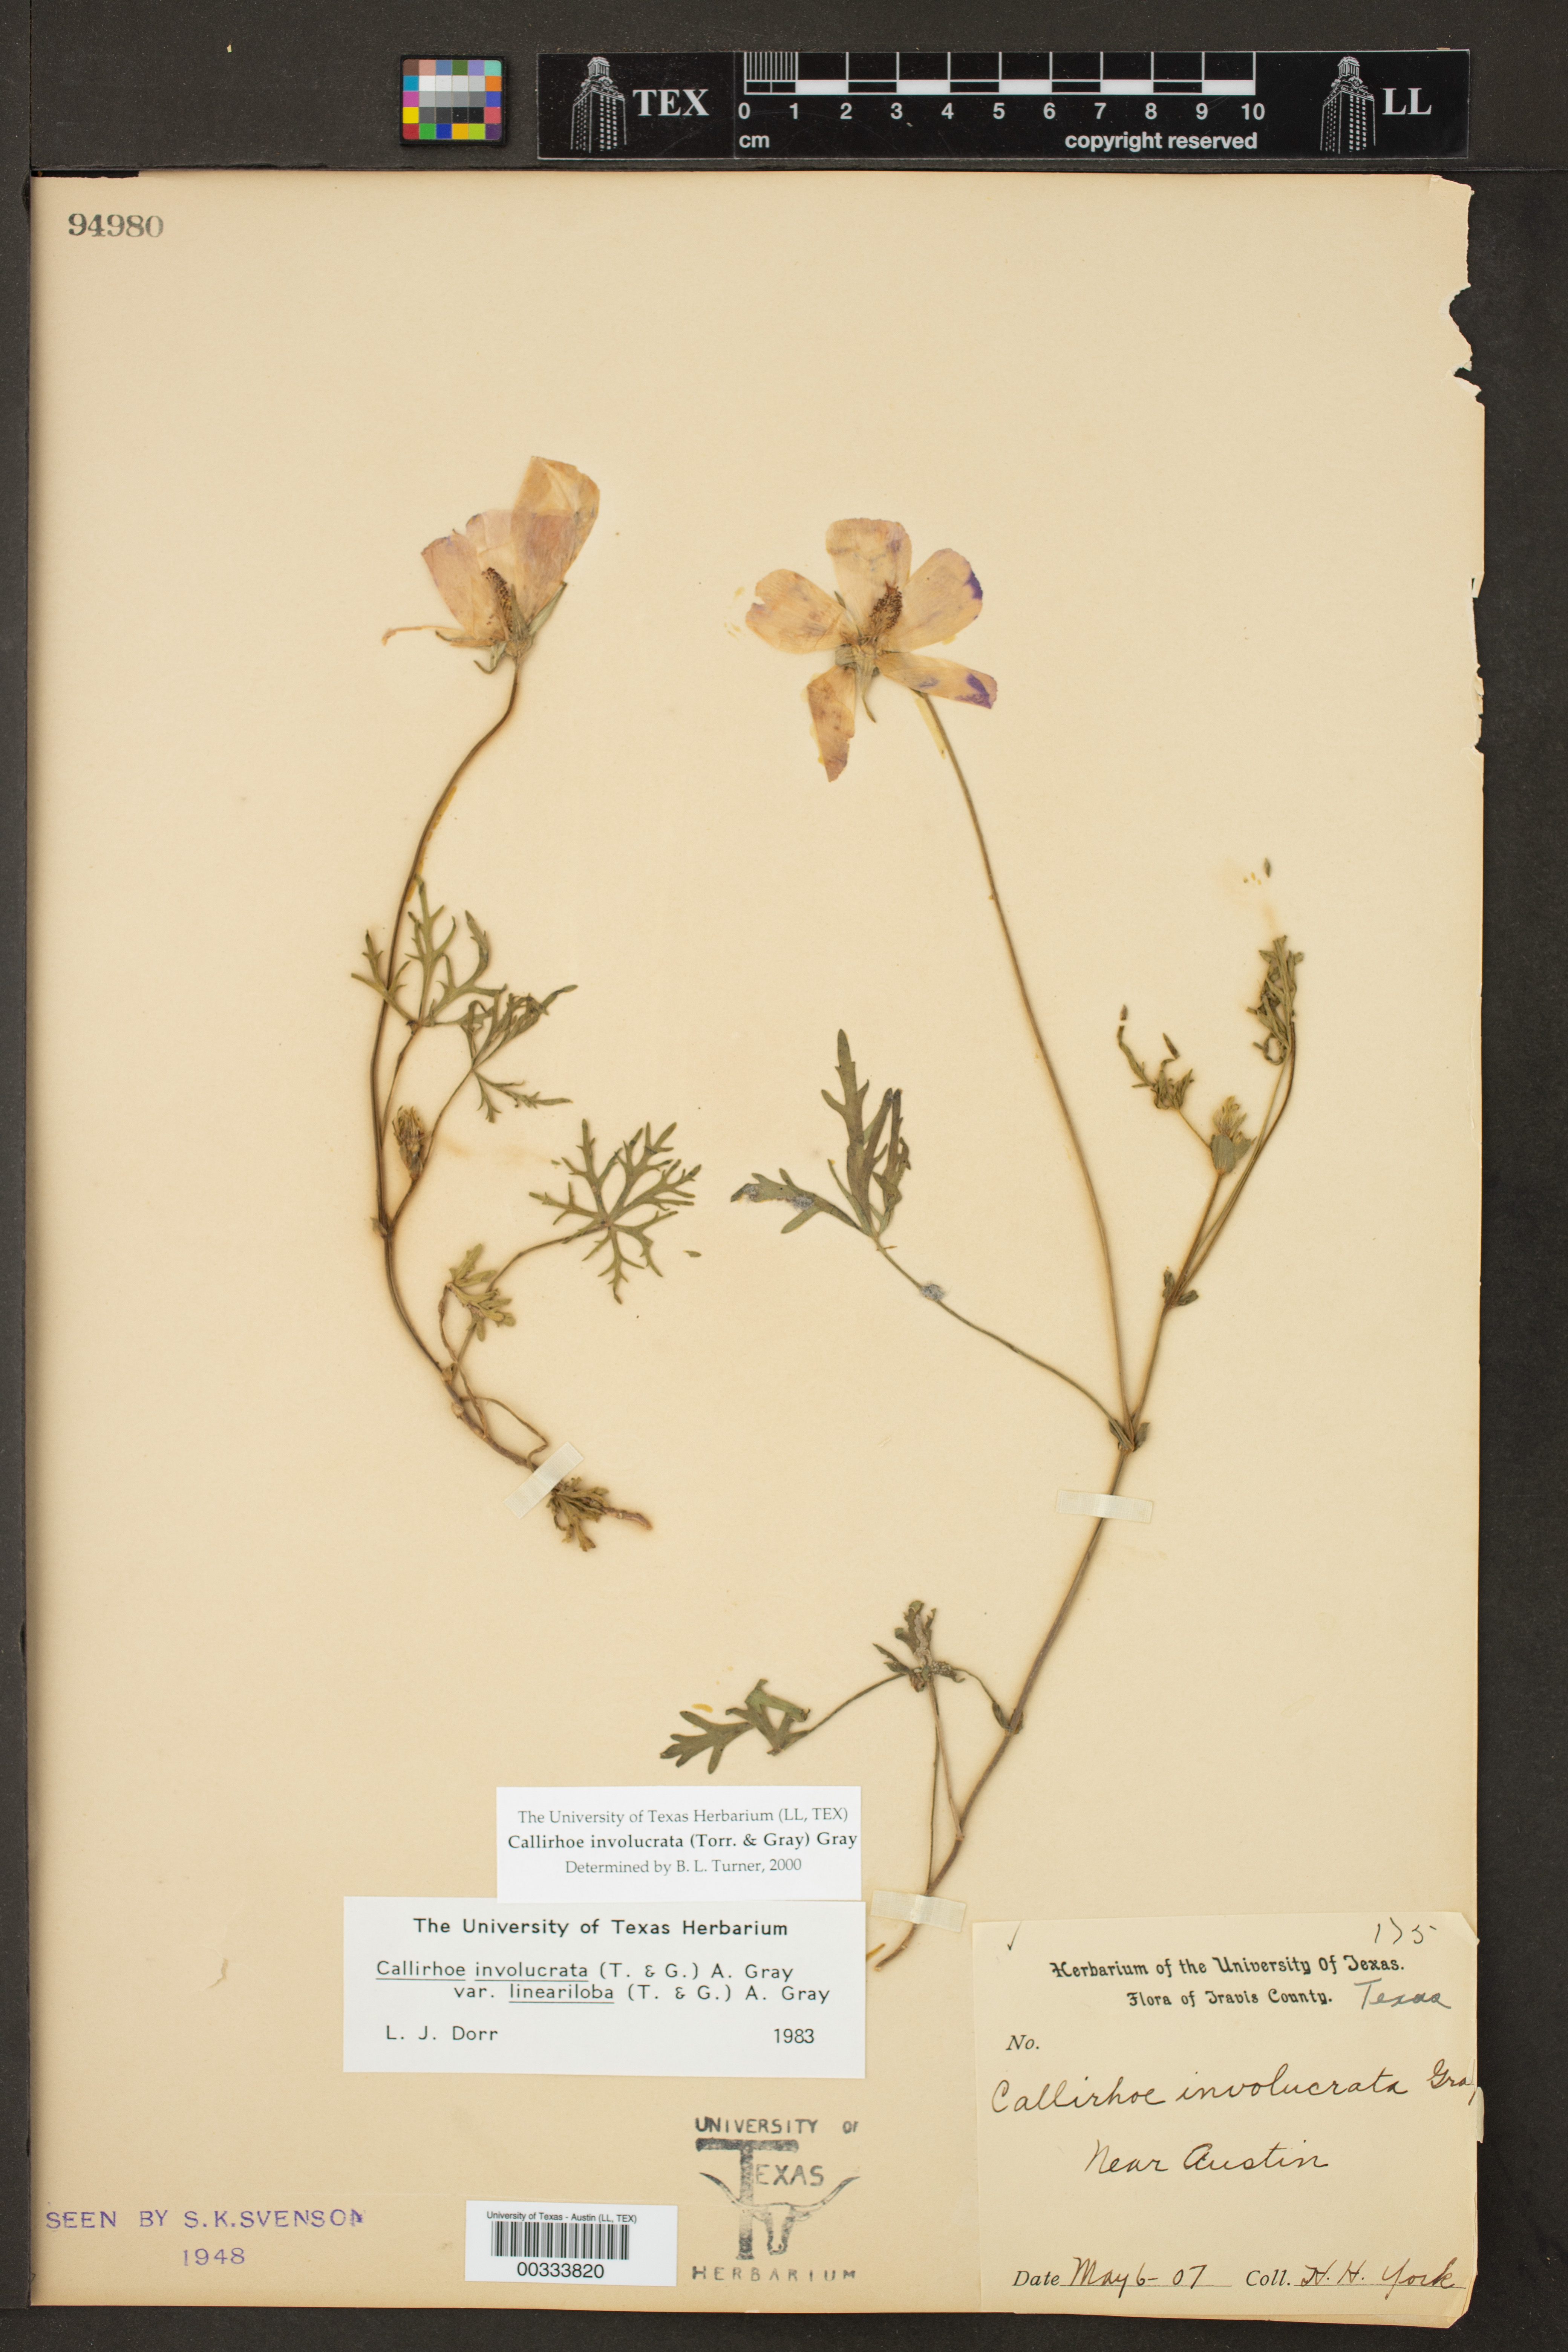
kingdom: Plantae
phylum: Tracheophyta
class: Magnoliopsida
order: Malvales
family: Malvaceae
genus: Callirhoe
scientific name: Callirhoe involucrata
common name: Purple poppy-mallow
